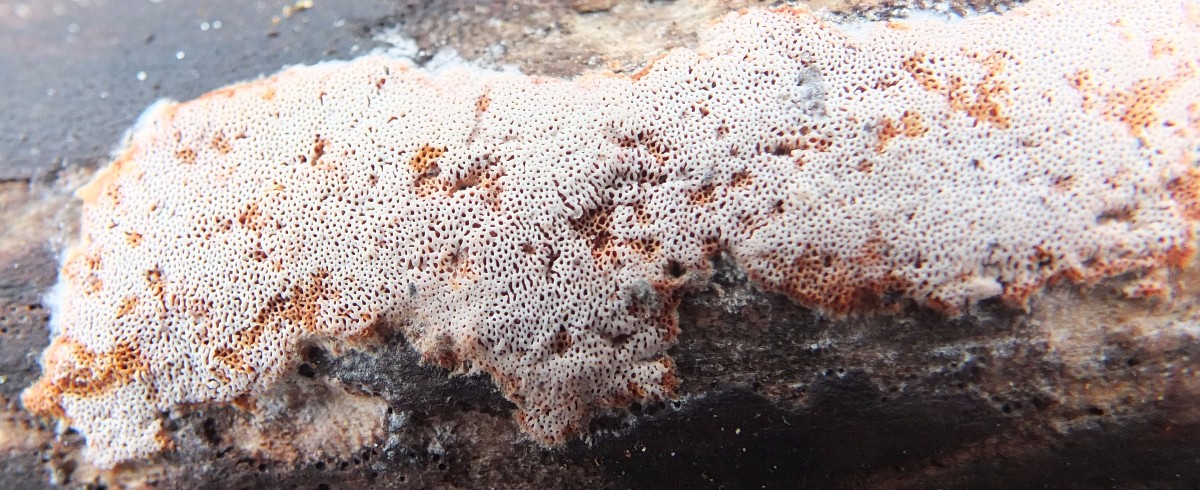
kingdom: Fungi
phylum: Basidiomycota
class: Agaricomycetes
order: Polyporales
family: Irpicaceae
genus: Ceriporia
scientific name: Ceriporia purpurea
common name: purpur-voksporesvamp
